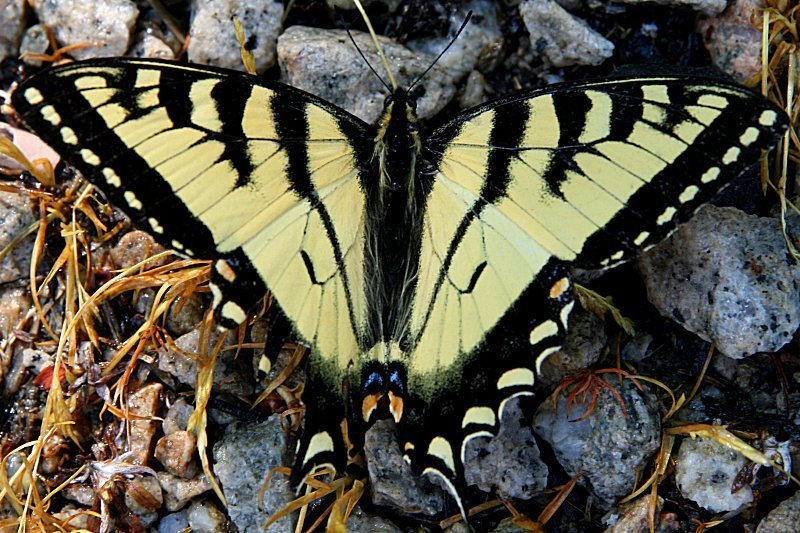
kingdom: Animalia
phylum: Arthropoda
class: Insecta
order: Lepidoptera
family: Papilionidae
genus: Pterourus
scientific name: Pterourus canadensis
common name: Canadian Tiger Swallowtail
